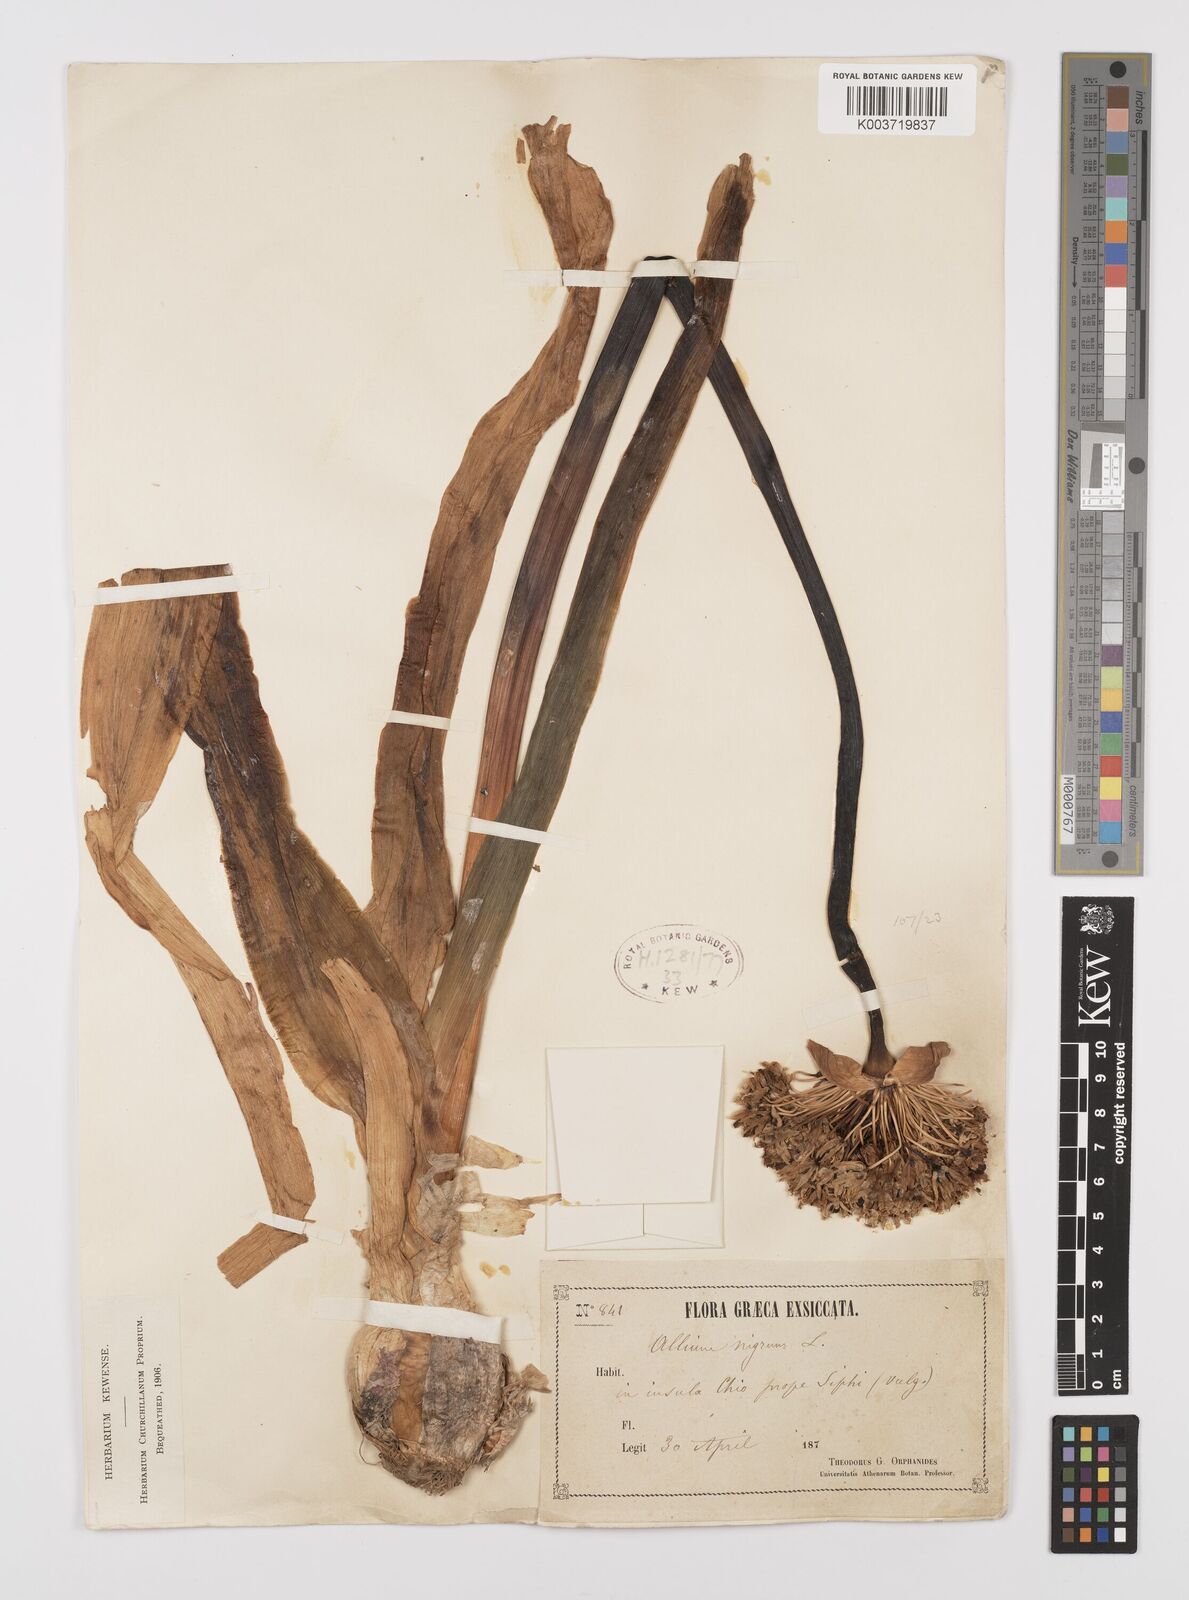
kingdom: Plantae
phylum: Tracheophyta
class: Liliopsida
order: Asparagales
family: Amaryllidaceae
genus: Allium
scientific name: Allium nigrum
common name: Black garlic
